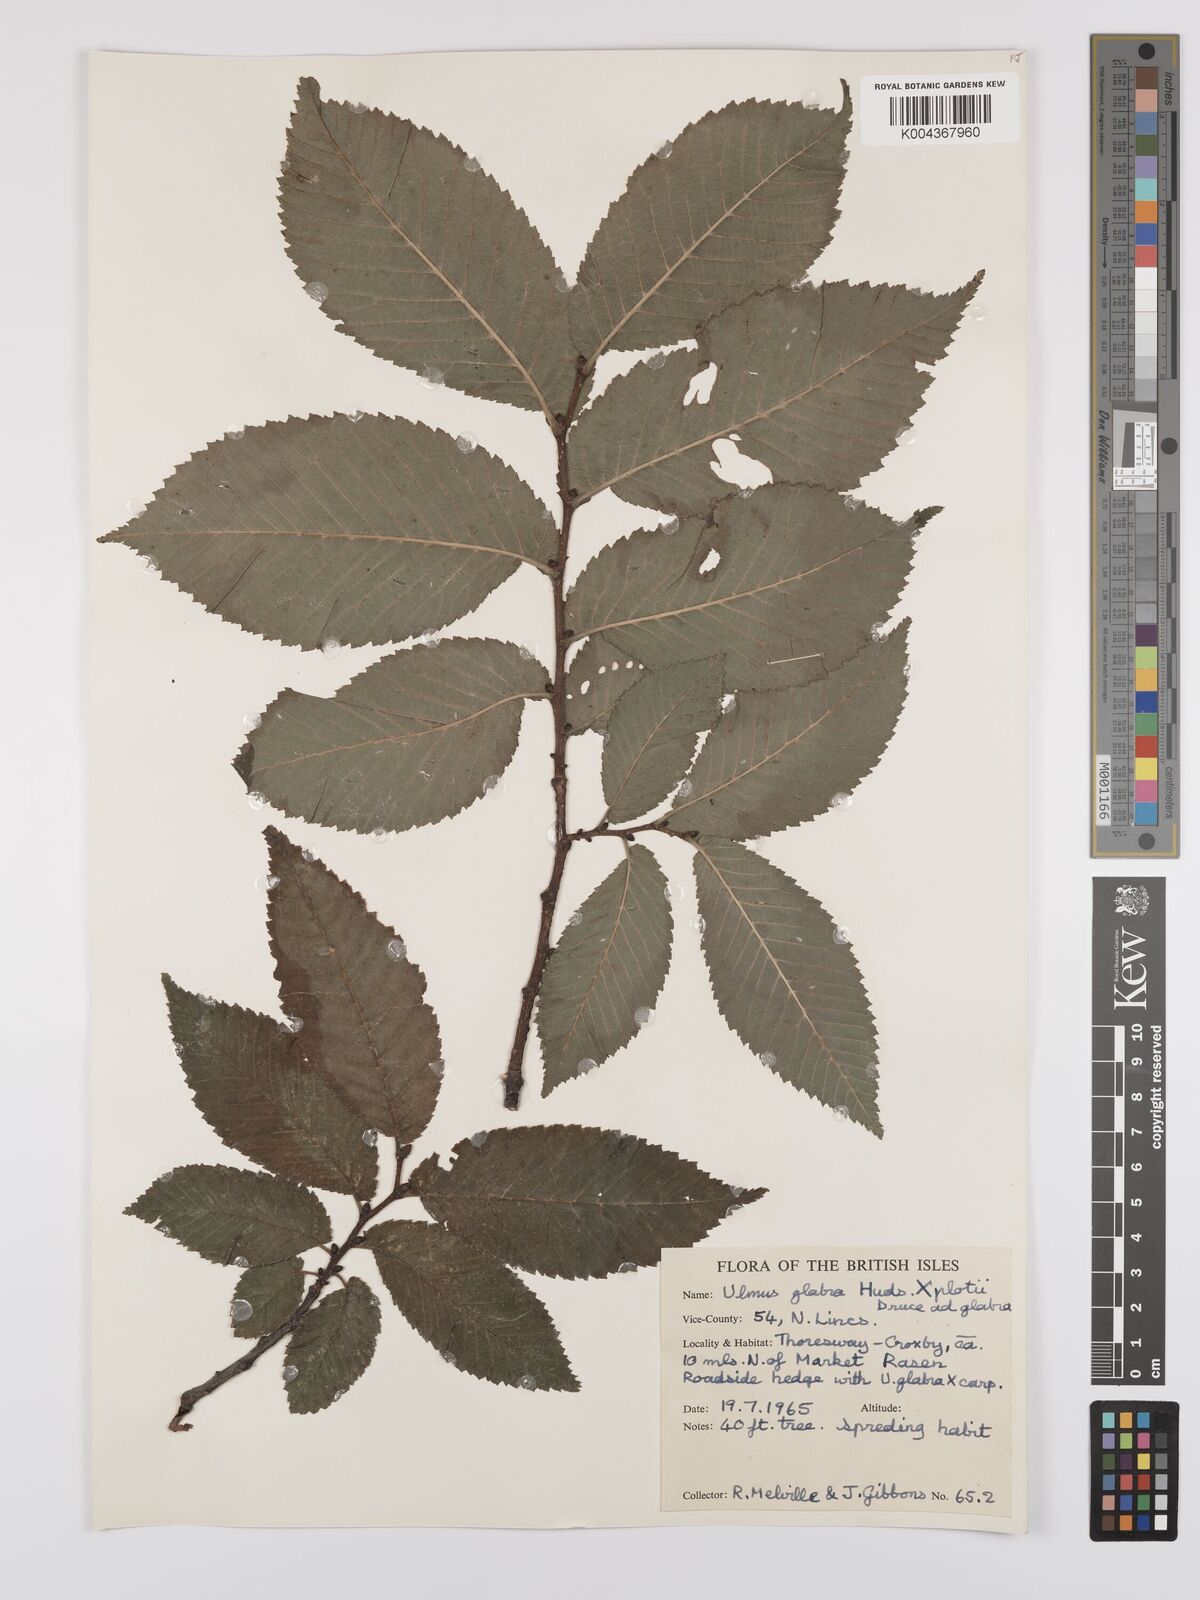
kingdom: Plantae
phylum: Tracheophyta
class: Magnoliopsida
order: Rosales
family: Ulmaceae
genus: Ulmus
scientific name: Ulmus glabra
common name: Wych elm
